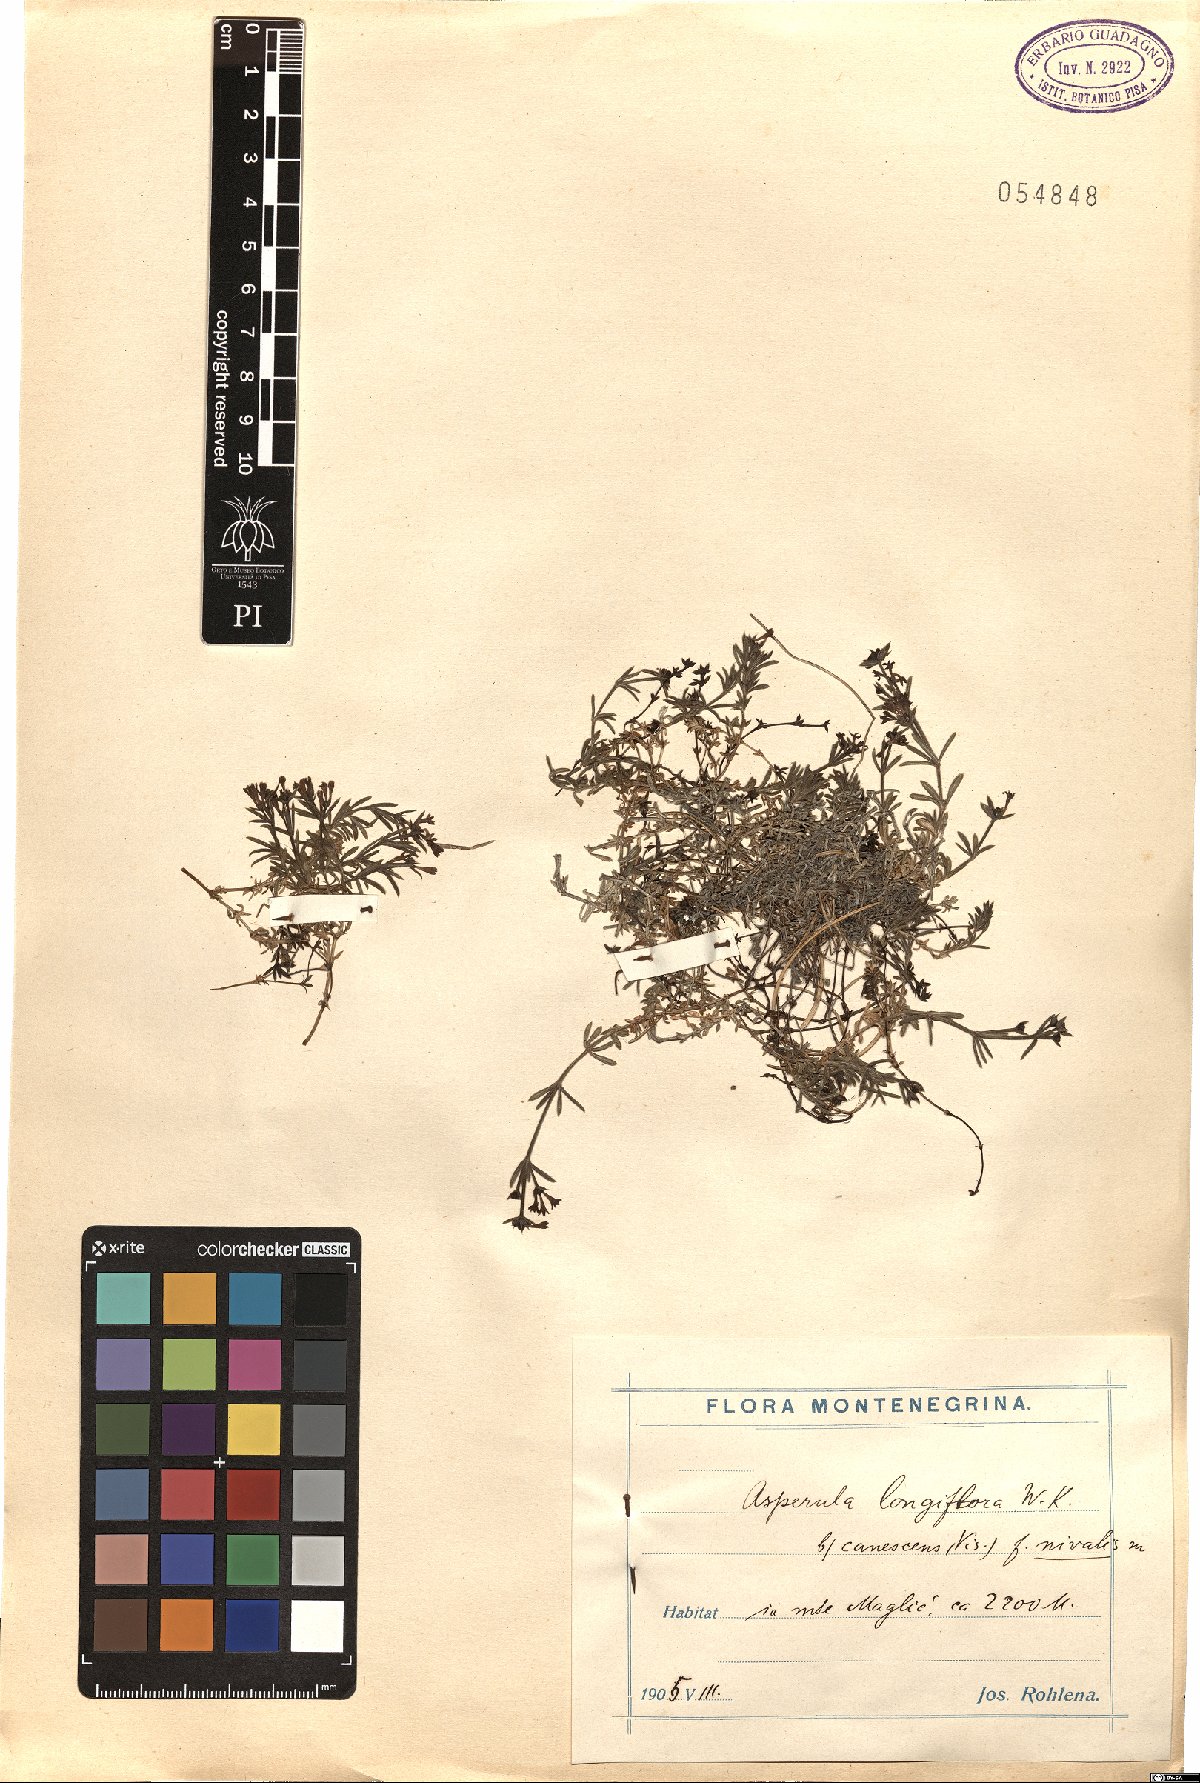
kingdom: Plantae
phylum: Tracheophyta
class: Magnoliopsida
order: Gentianales
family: Rubiaceae
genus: Cynanchica
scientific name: Cynanchica aristata
